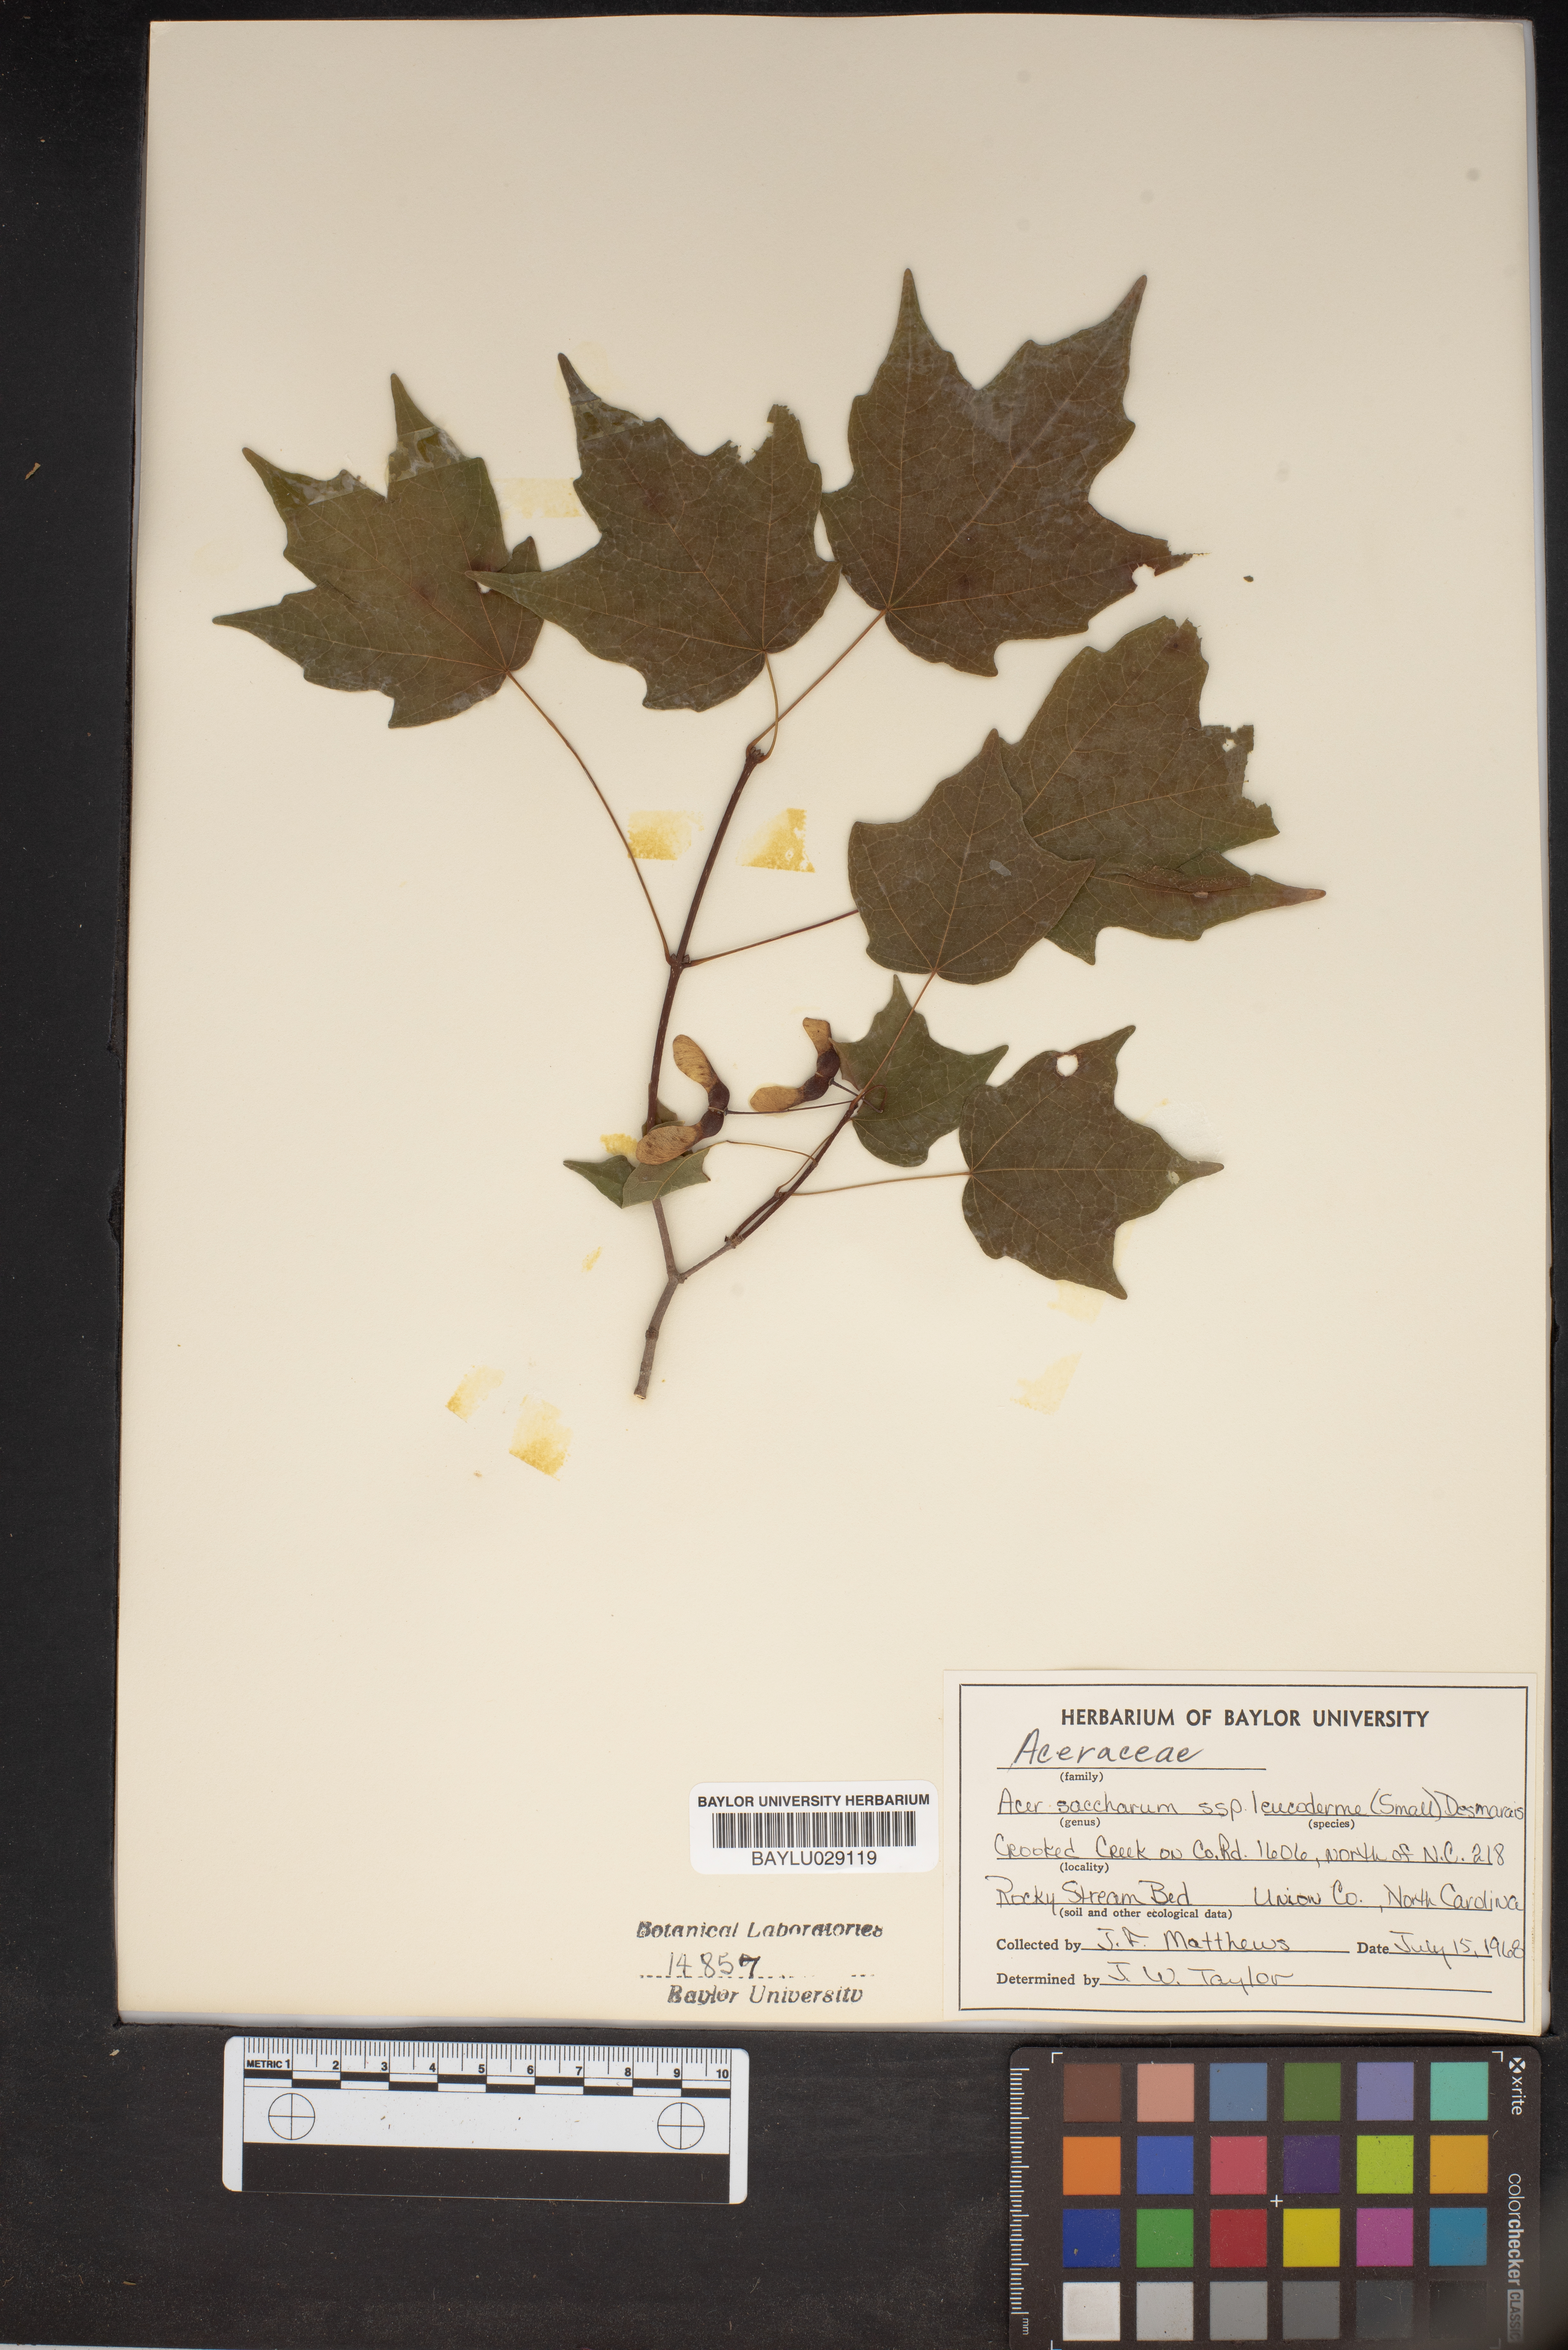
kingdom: Plantae
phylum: Tracheophyta
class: Magnoliopsida
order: Sapindales
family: Sapindaceae
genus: Acer
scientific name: Acer leucoderme
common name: Chalk maple
